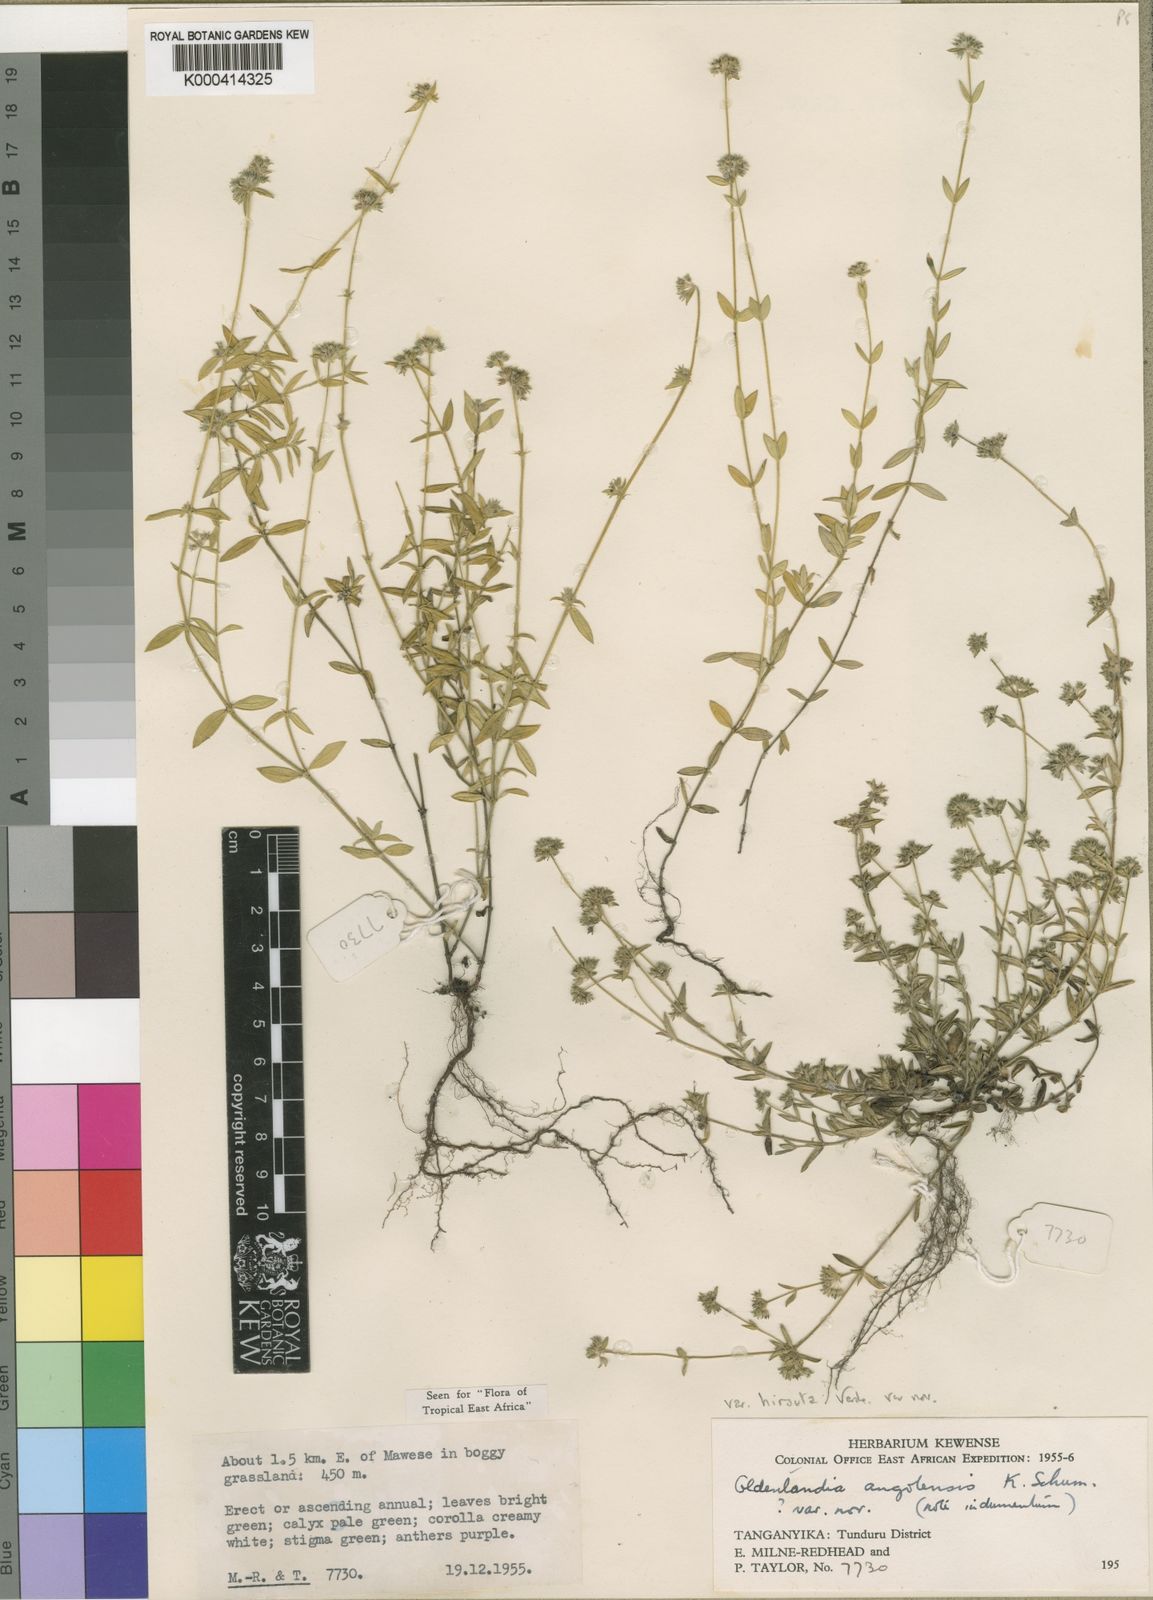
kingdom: Plantae
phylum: Tracheophyta
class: Magnoliopsida
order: Gentianales
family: Rubiaceae
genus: Edrastima
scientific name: Edrastima angolensis
